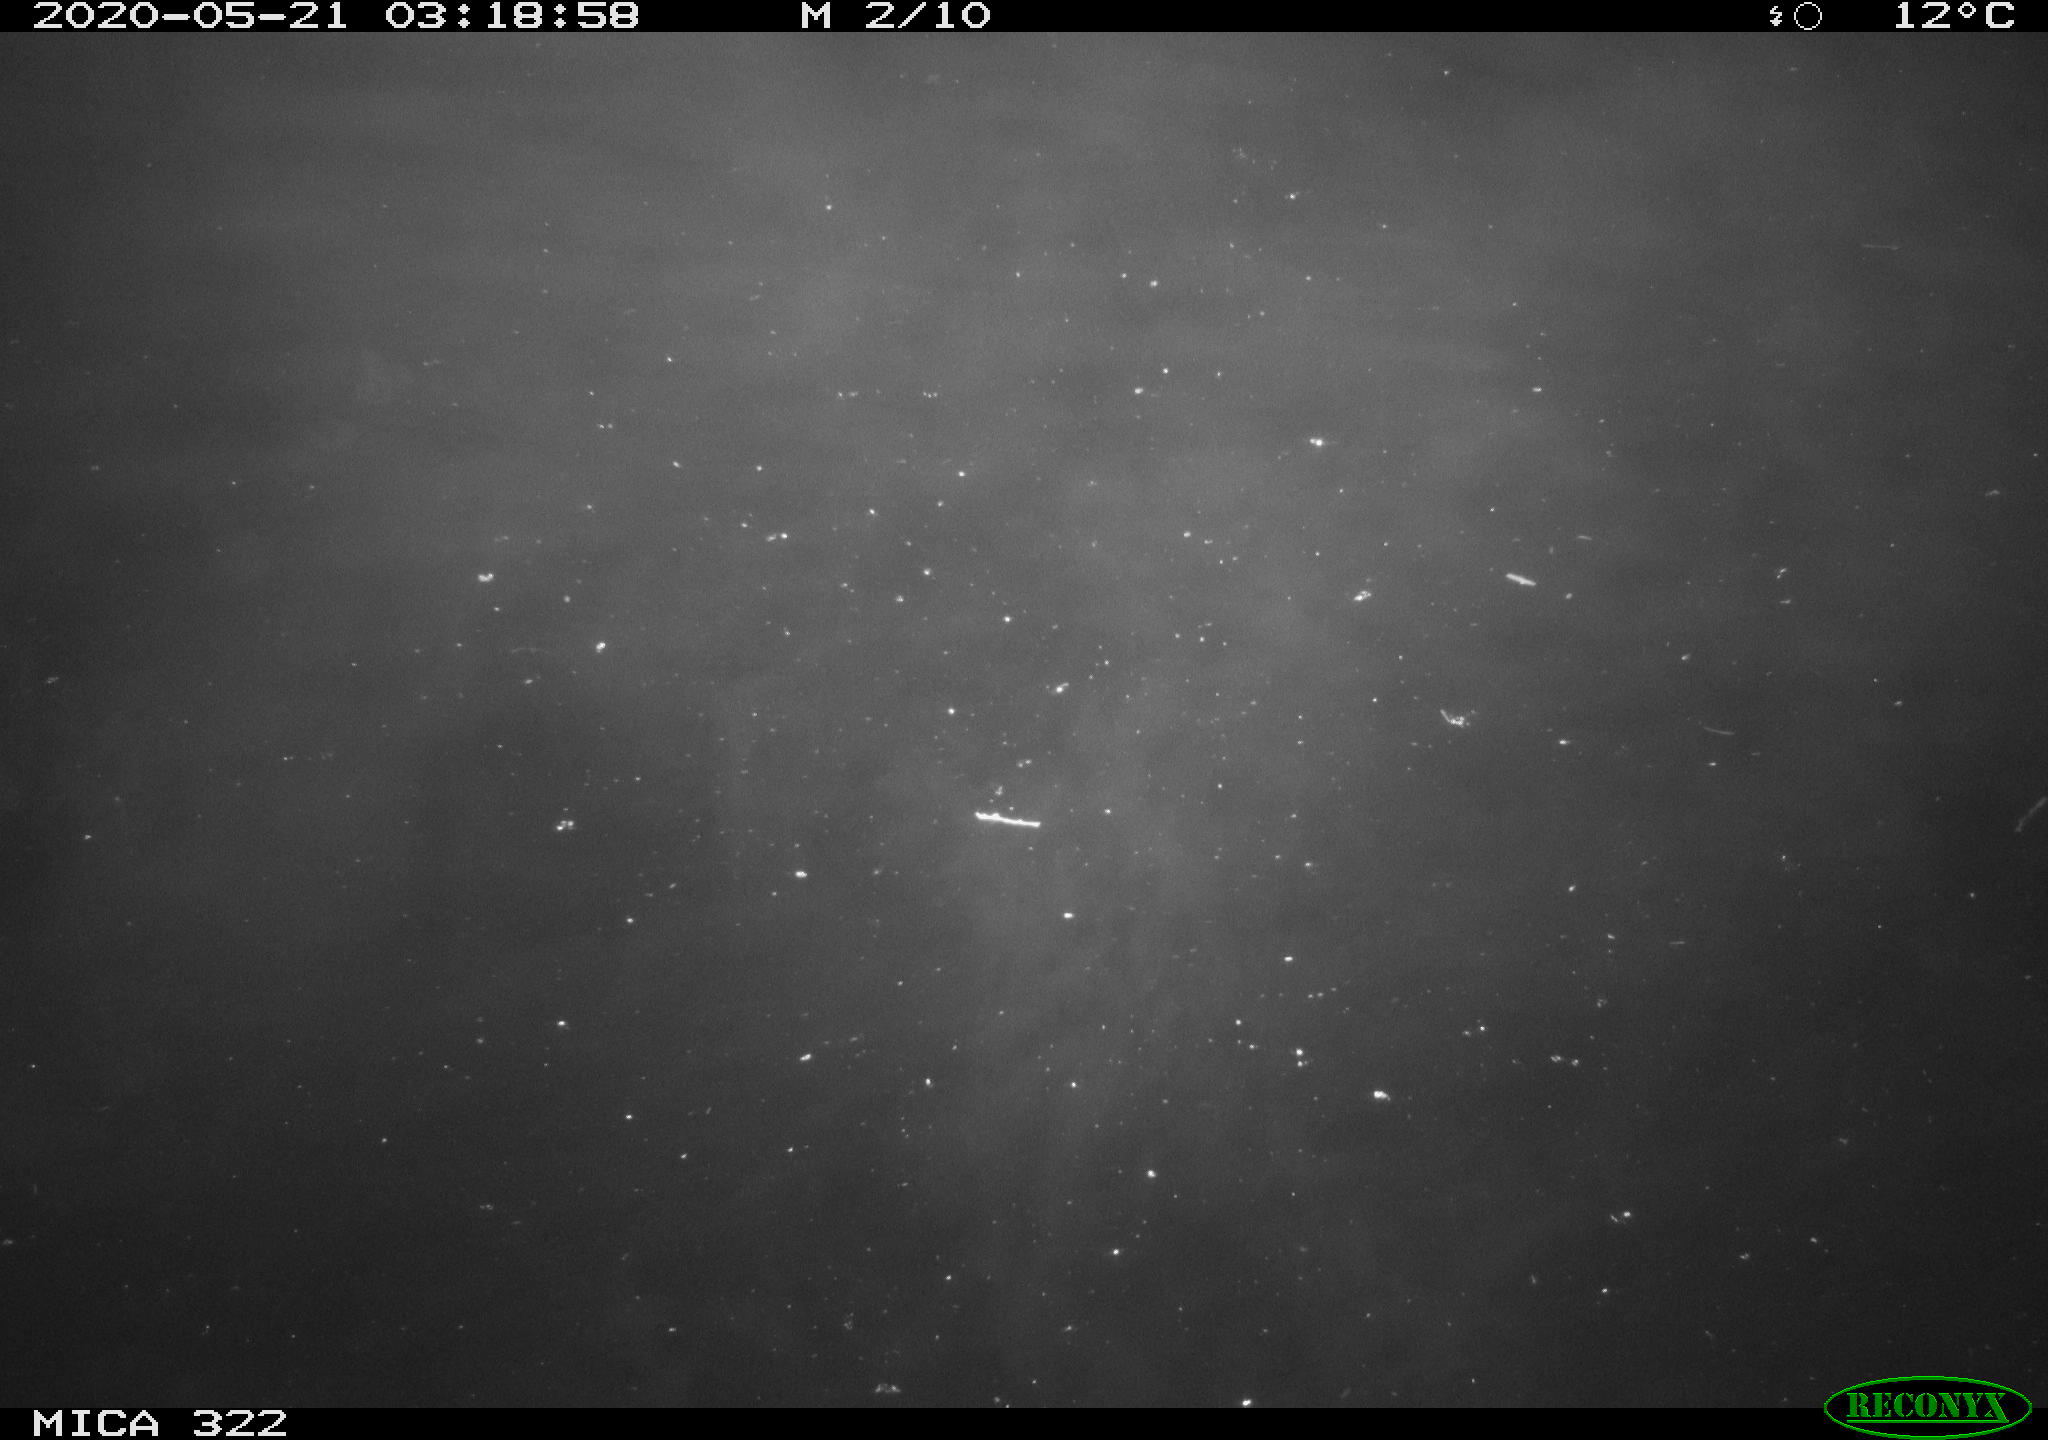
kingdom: Animalia
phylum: Chordata
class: Aves
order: Anseriformes
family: Anatidae
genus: Anas
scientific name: Anas platyrhynchos
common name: Mallard
